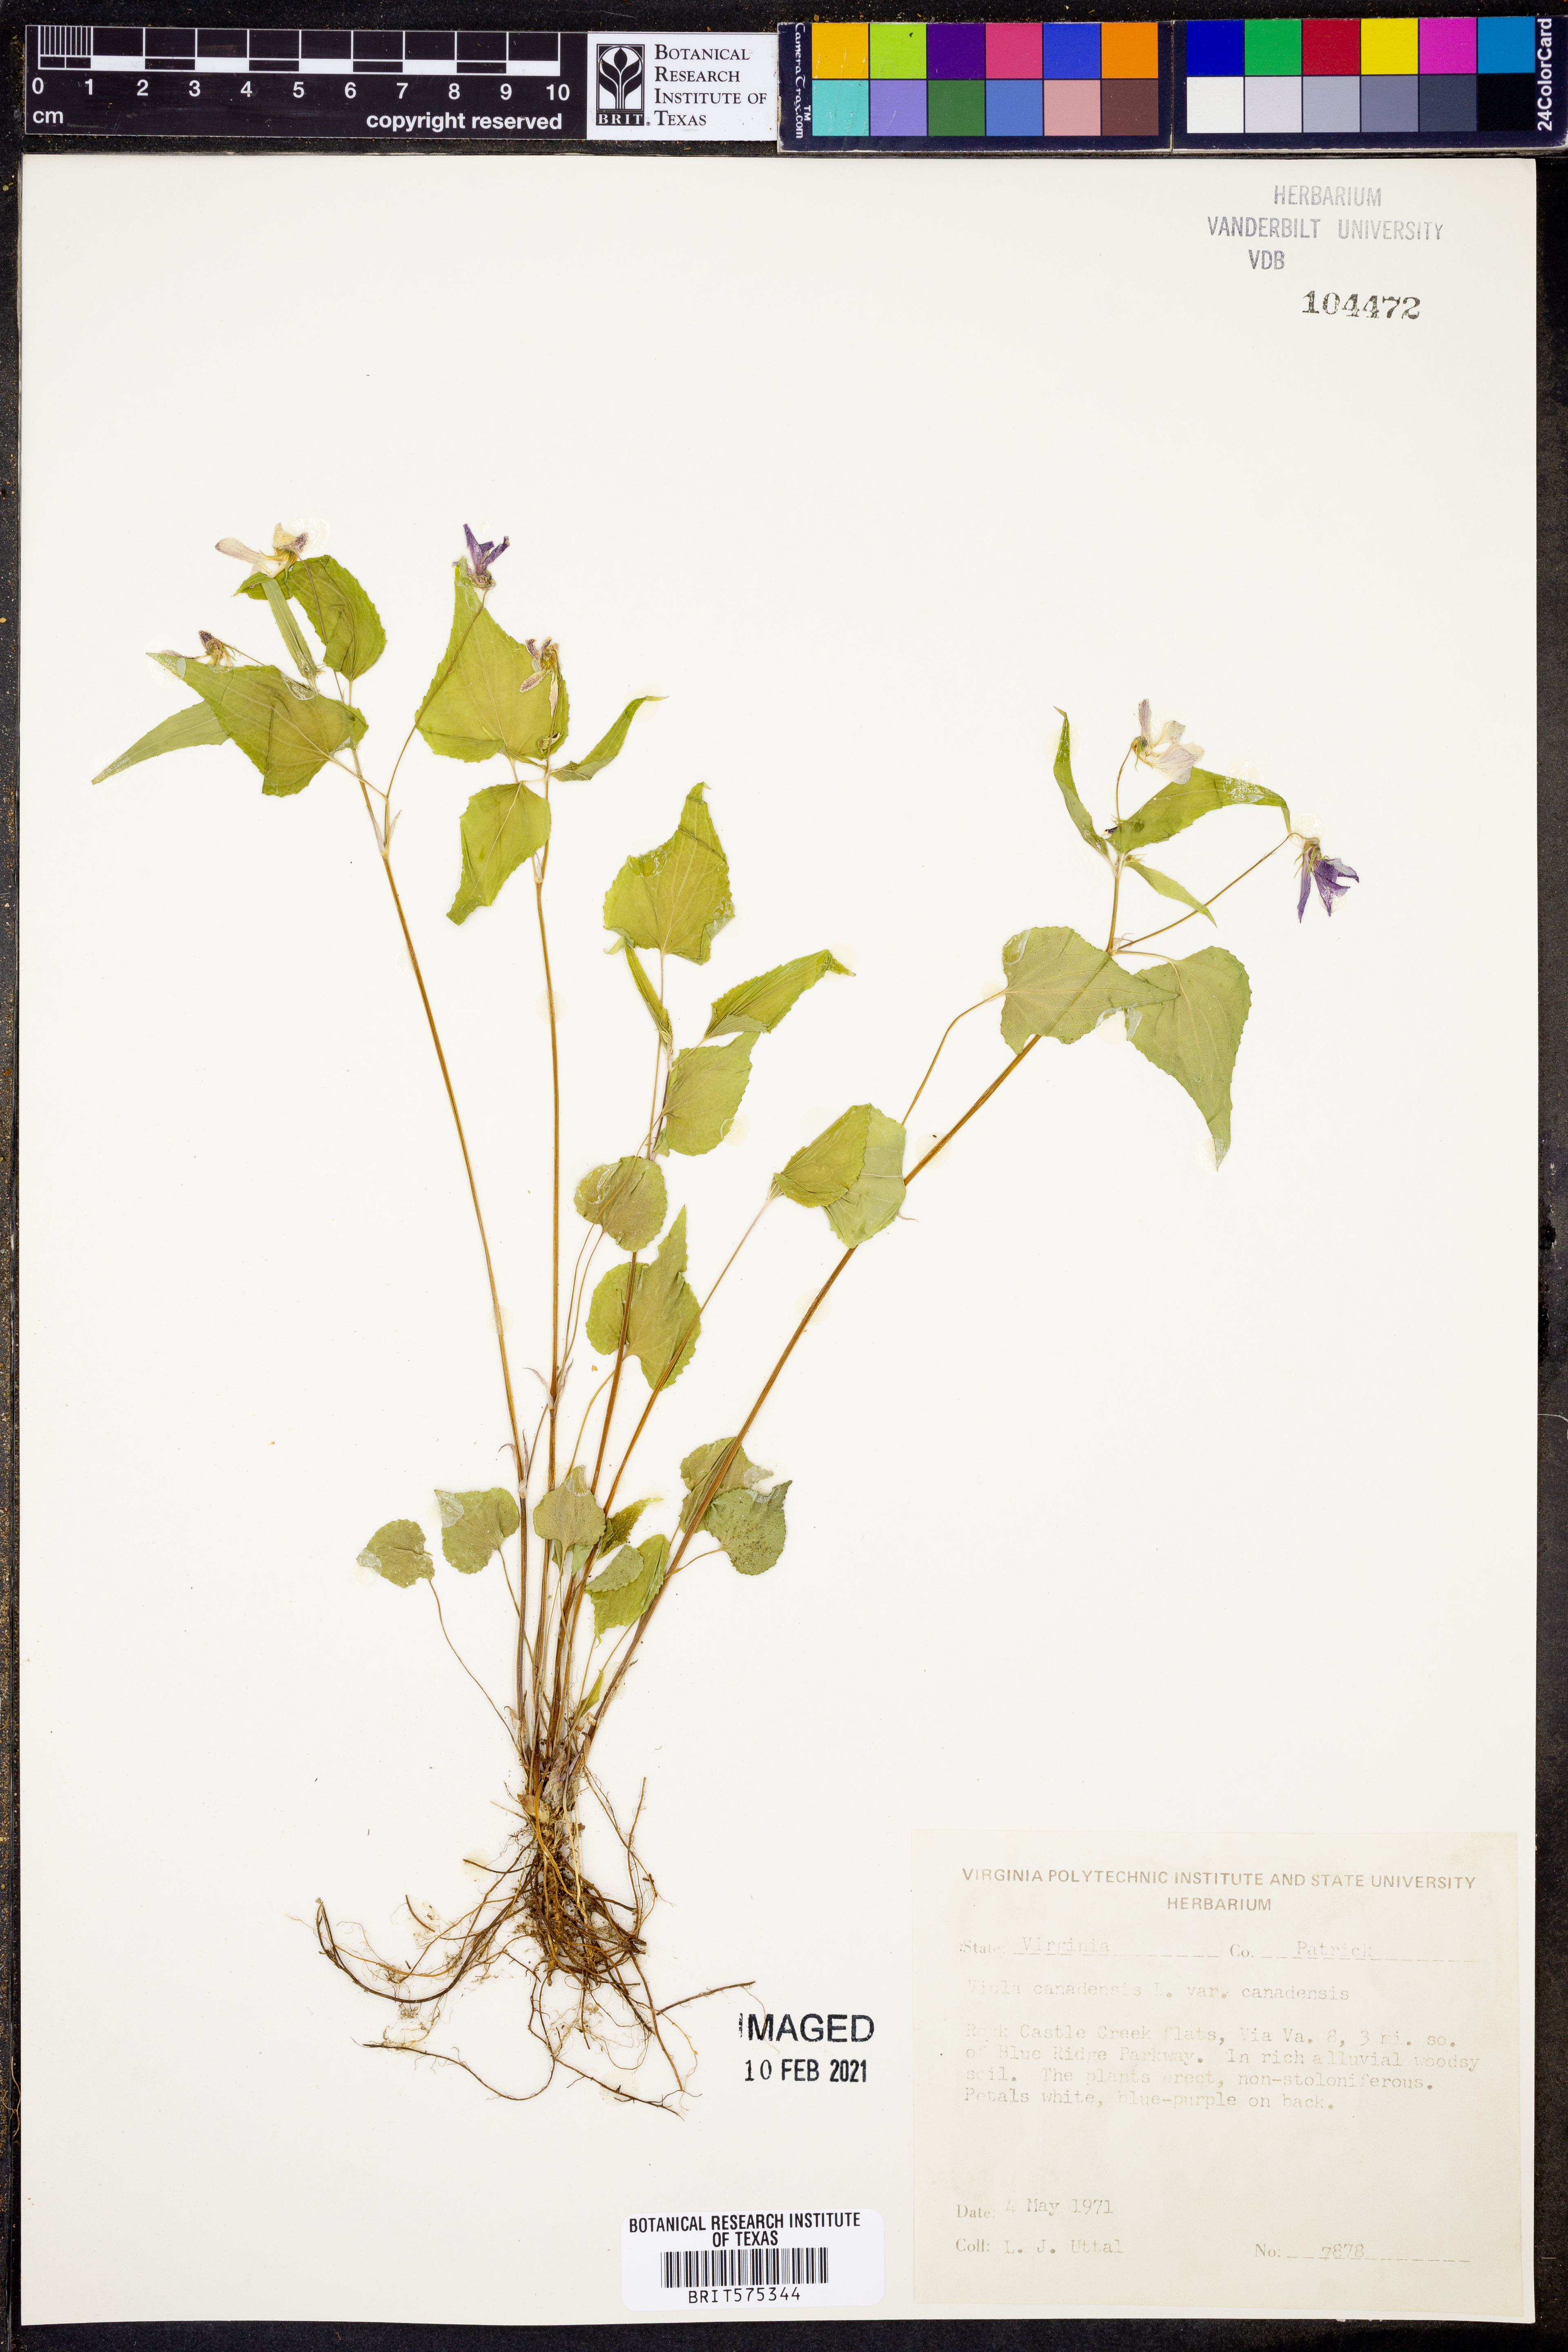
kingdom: Plantae
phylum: Tracheophyta
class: Magnoliopsida
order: Malpighiales
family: Violaceae
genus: Viola
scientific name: Viola canadensis
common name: Canada violet
